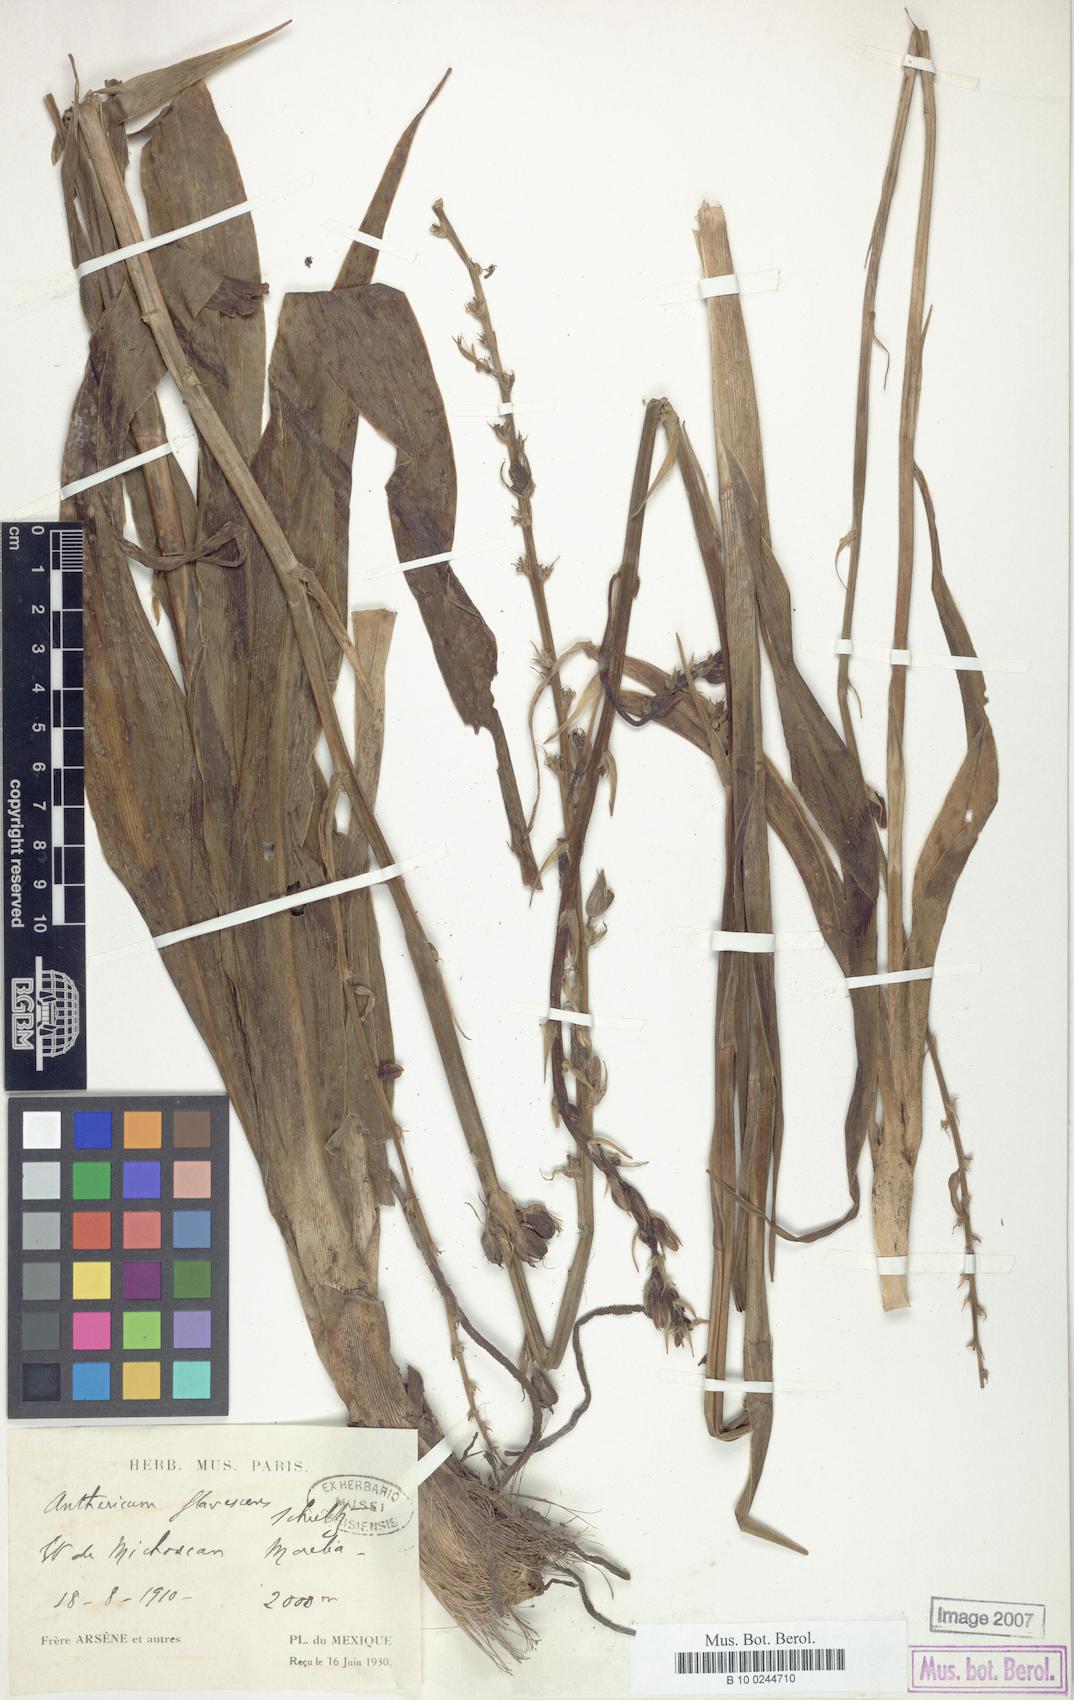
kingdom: Plantae
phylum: Tracheophyta
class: Liliopsida
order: Asparagales
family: Asparagaceae
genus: Anthericum
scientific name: Anthericum
